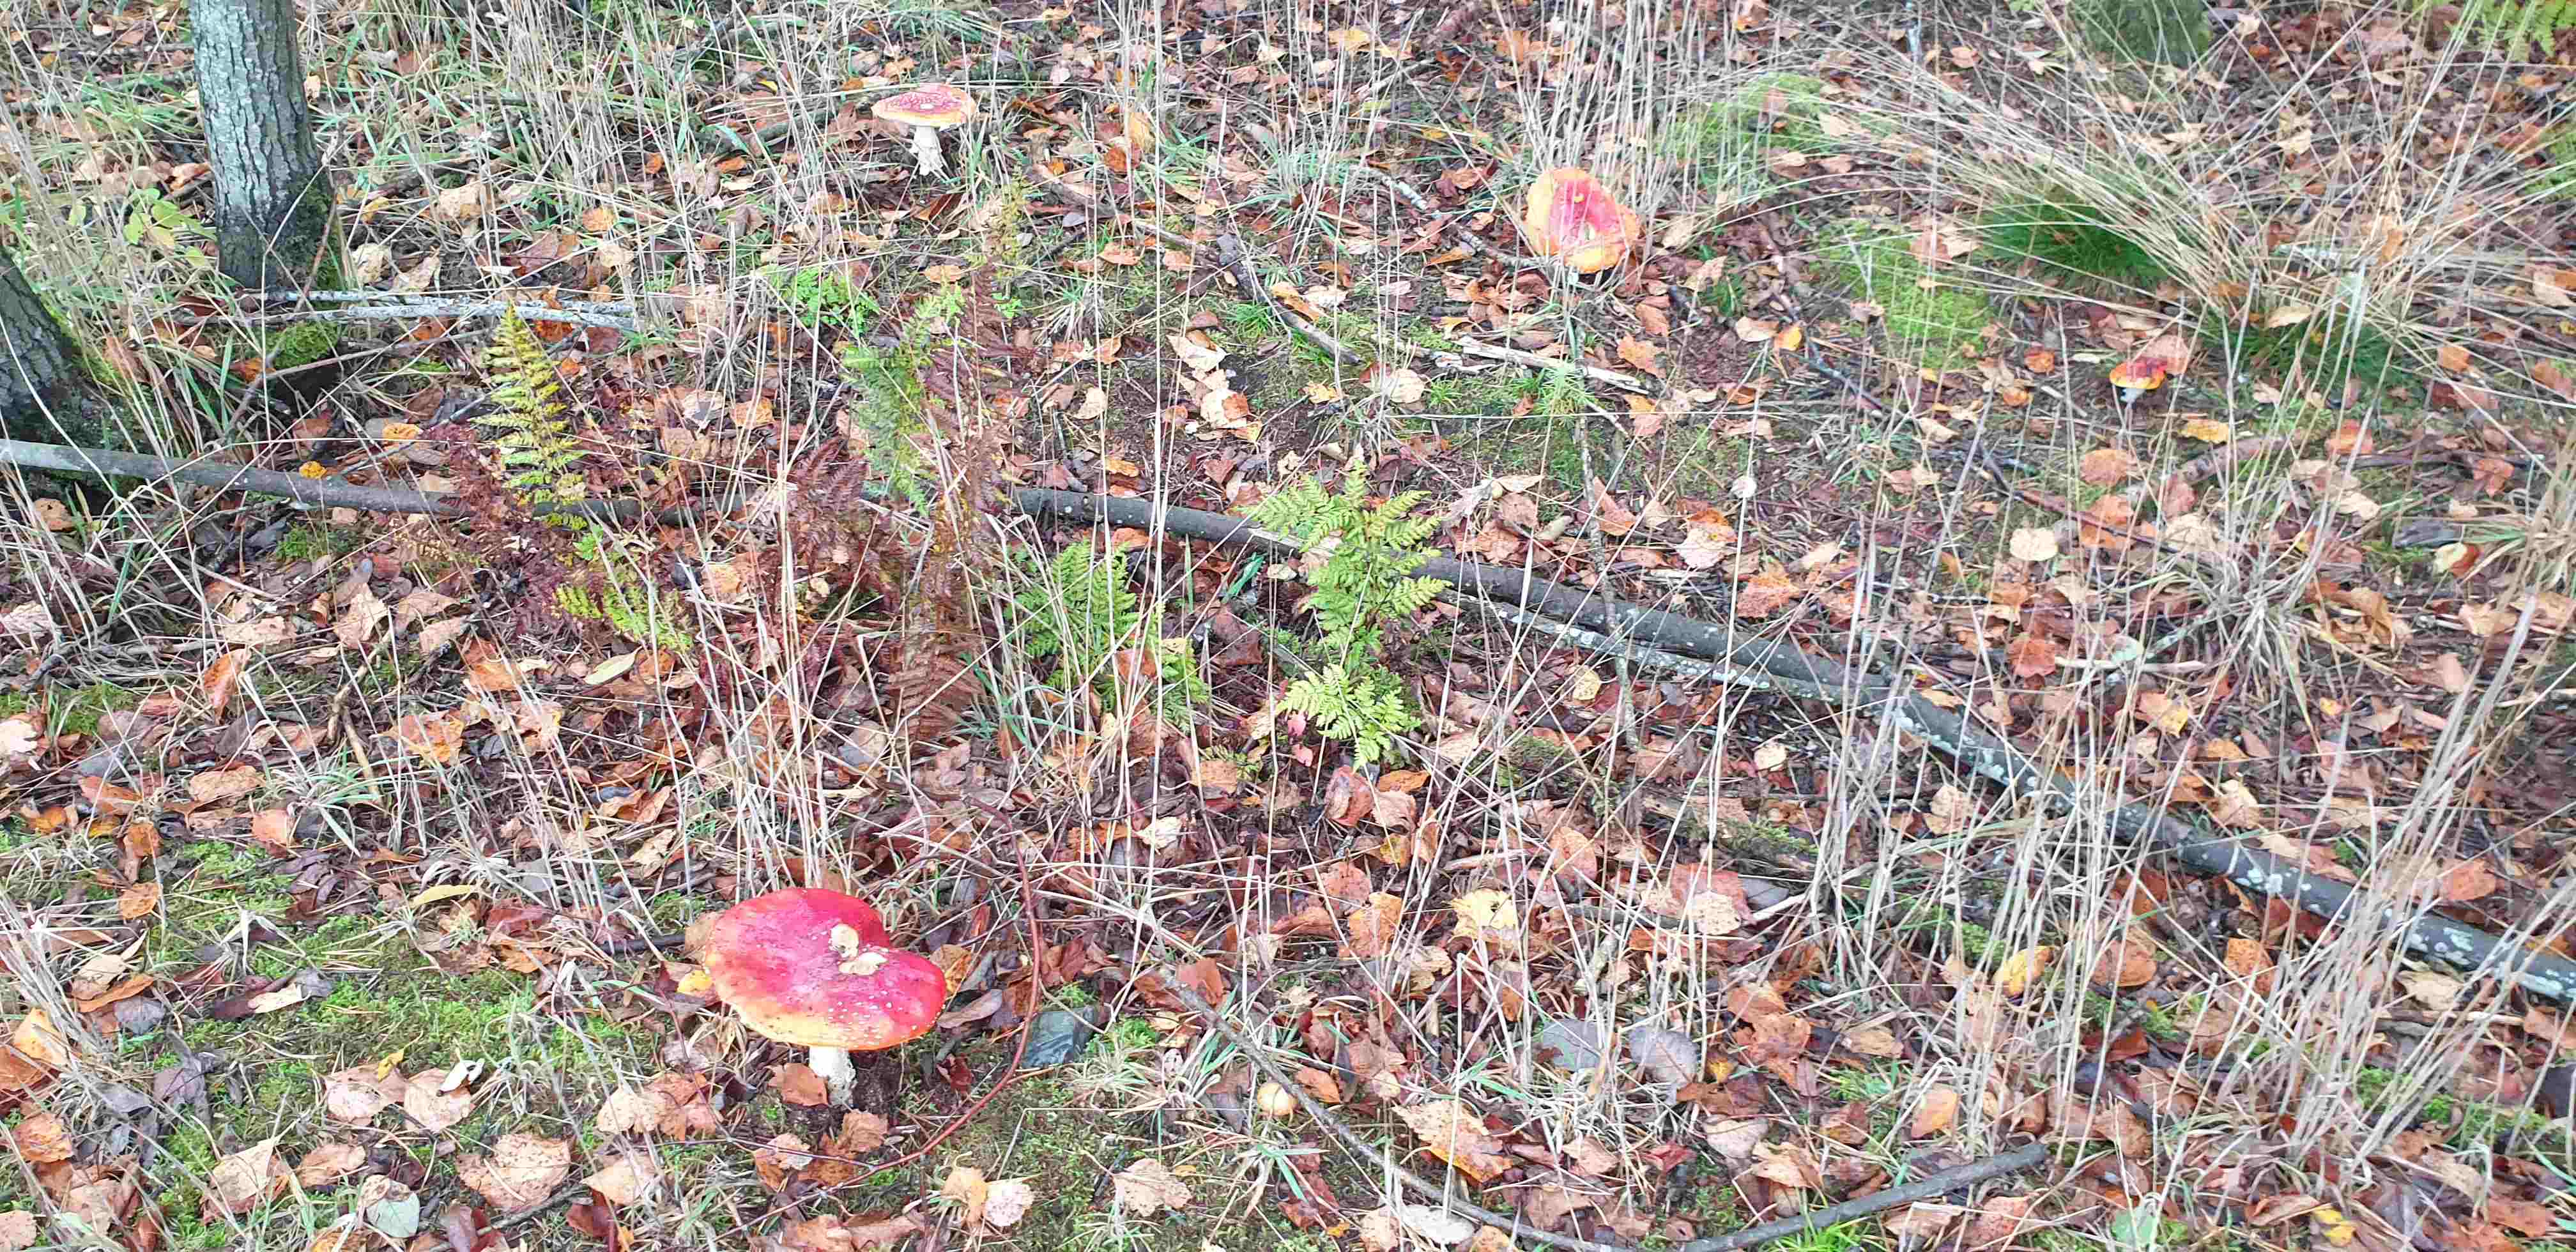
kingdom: Fungi
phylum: Basidiomycota
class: Agaricomycetes
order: Agaricales
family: Amanitaceae
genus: Amanita
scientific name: Amanita muscaria
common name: rød fluesvamp
